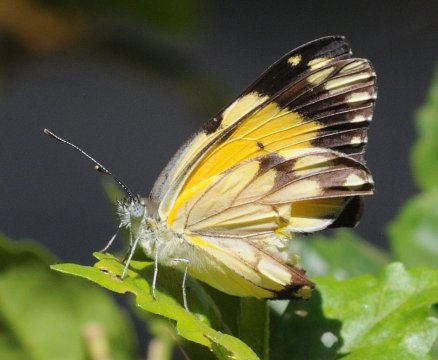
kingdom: Animalia
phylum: Arthropoda
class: Insecta
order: Lepidoptera
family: Pieridae
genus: Belenois
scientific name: Belenois creona
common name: African Caper
